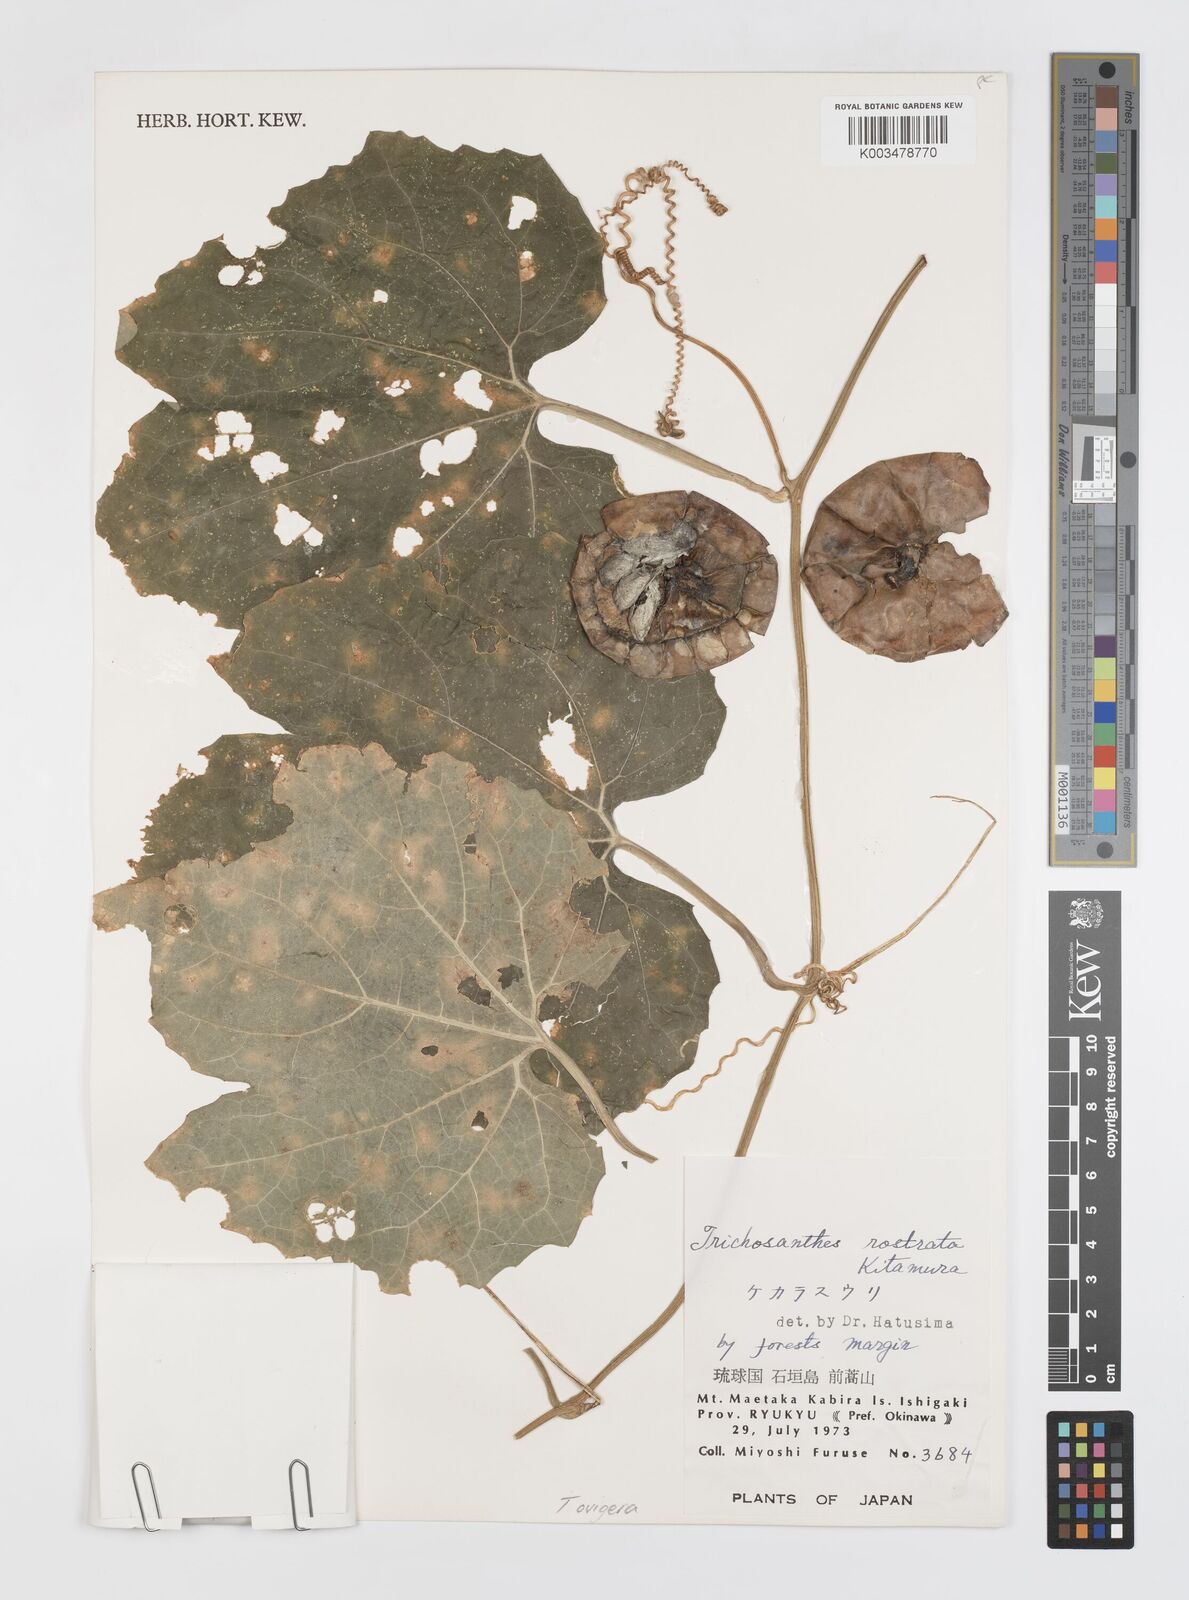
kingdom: Plantae
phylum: Tracheophyta
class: Magnoliopsida
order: Cucurbitales
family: Cucurbitaceae
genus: Trichosanthes
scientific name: Trichosanthes ovigera
